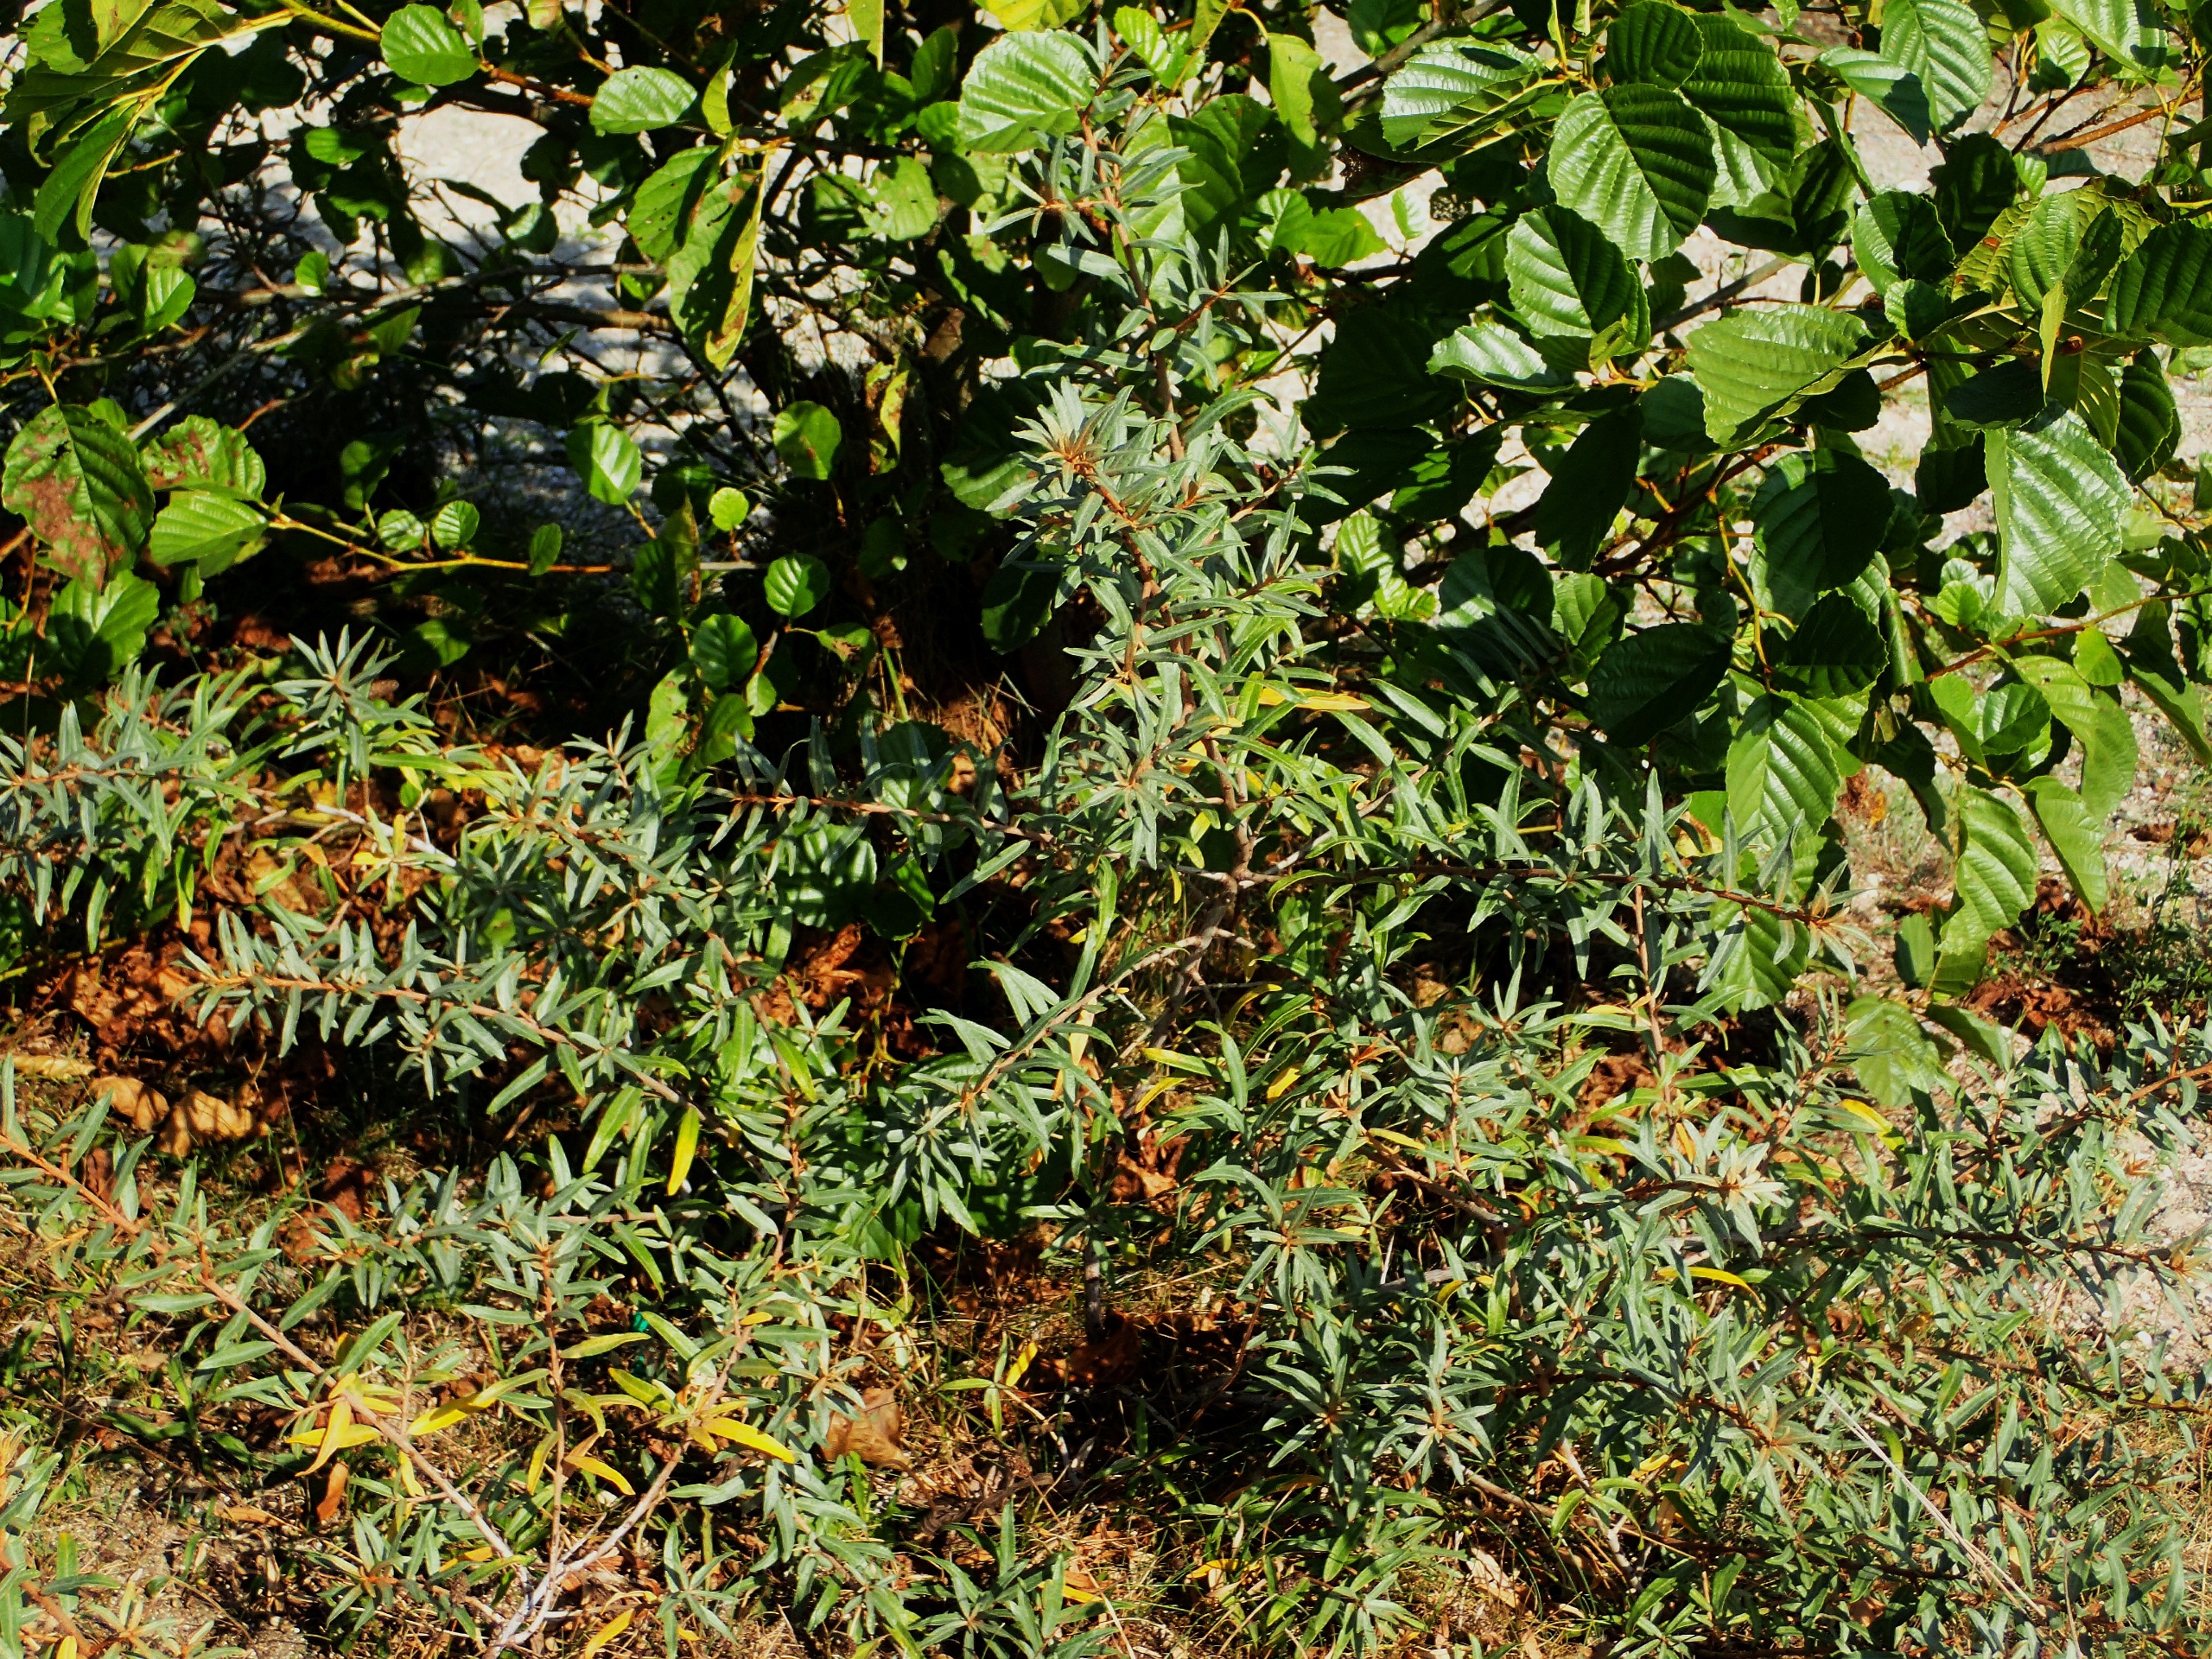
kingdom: Plantae
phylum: Tracheophyta
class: Magnoliopsida
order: Rosales
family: Elaeagnaceae
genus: Hippophae
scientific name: Hippophae rhamnoides
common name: Havtorn
